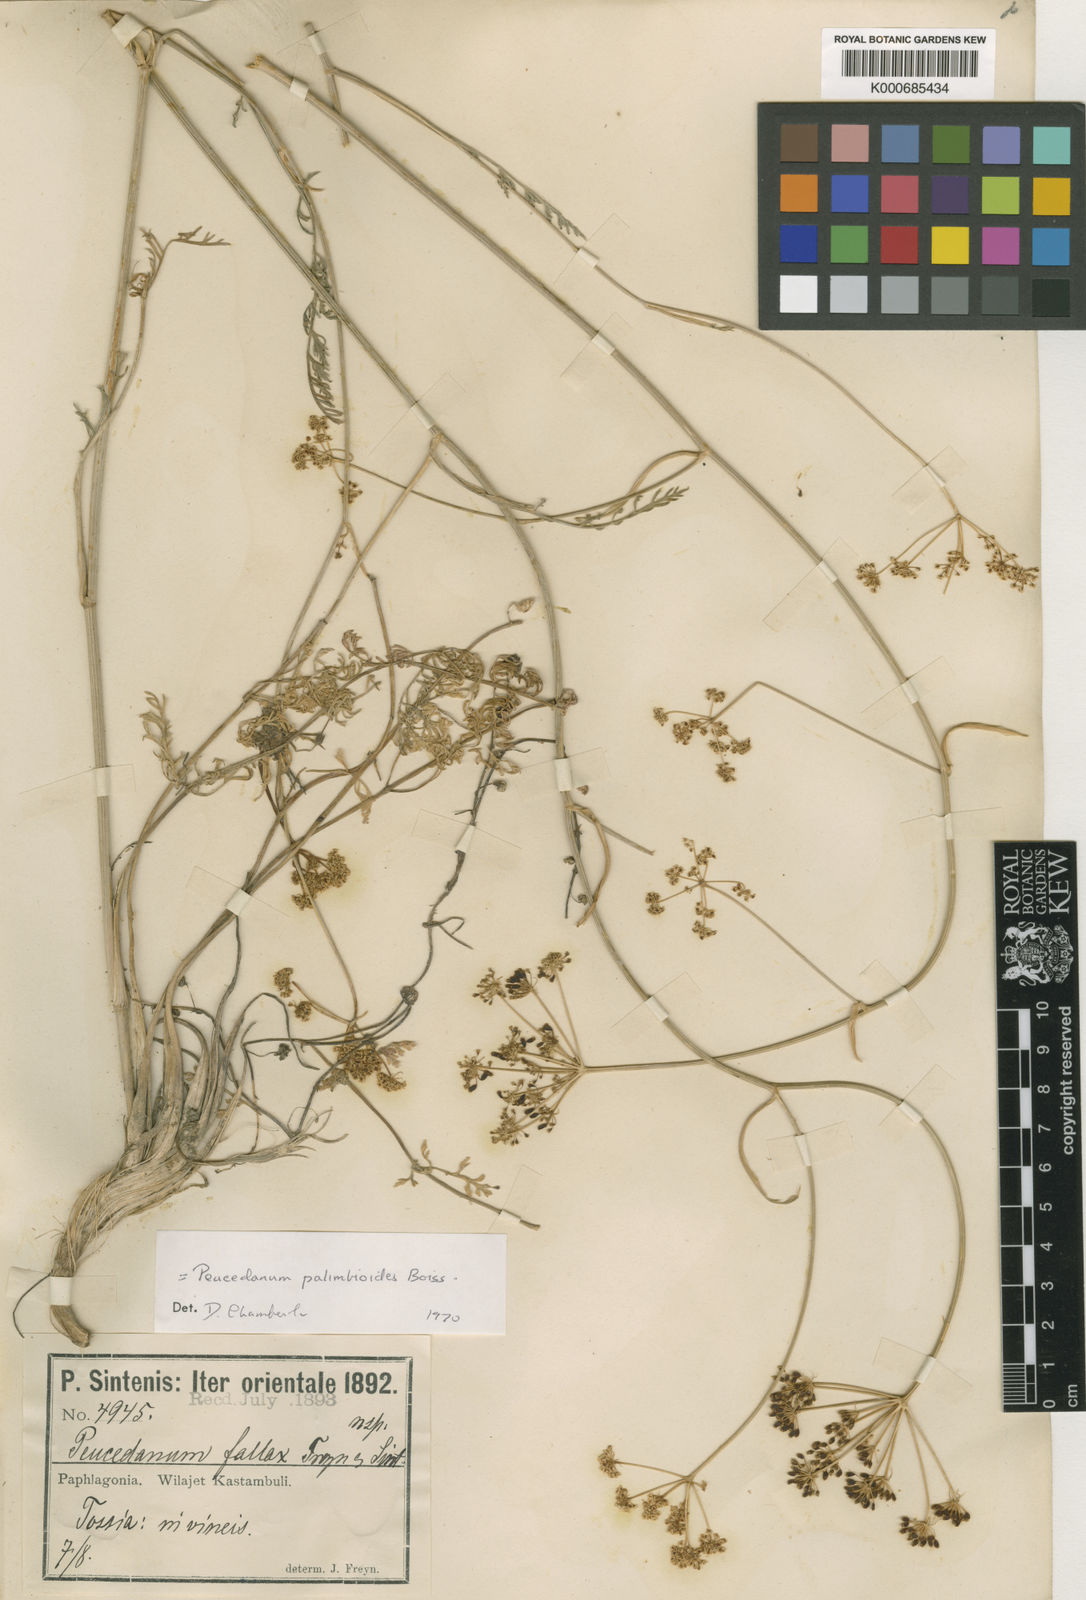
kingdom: Plantae
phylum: Tracheophyta
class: Magnoliopsida
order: Apiales
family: Apiaceae
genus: Dichoropetalum
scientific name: Dichoropetalum palimbioides
